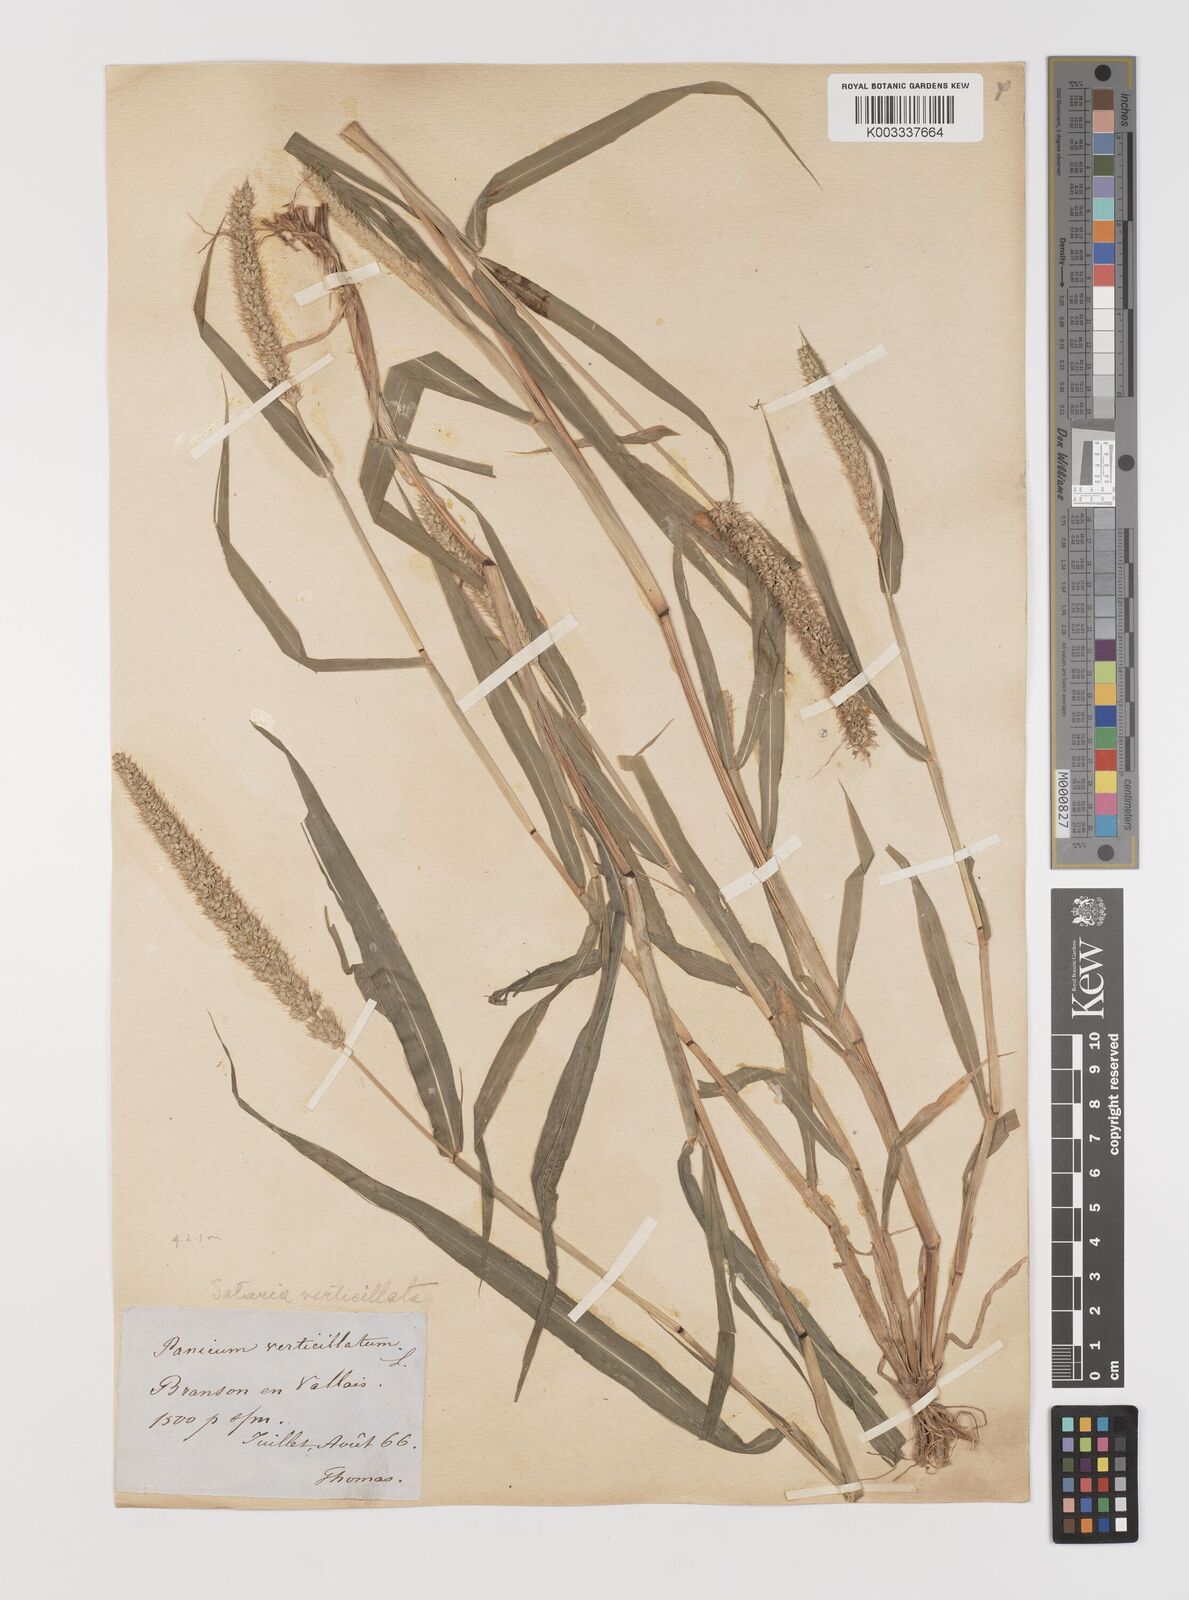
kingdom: Plantae
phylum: Tracheophyta
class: Liliopsida
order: Poales
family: Poaceae
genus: Setaria
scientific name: Setaria verticillata
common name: Hooked bristlegrass
